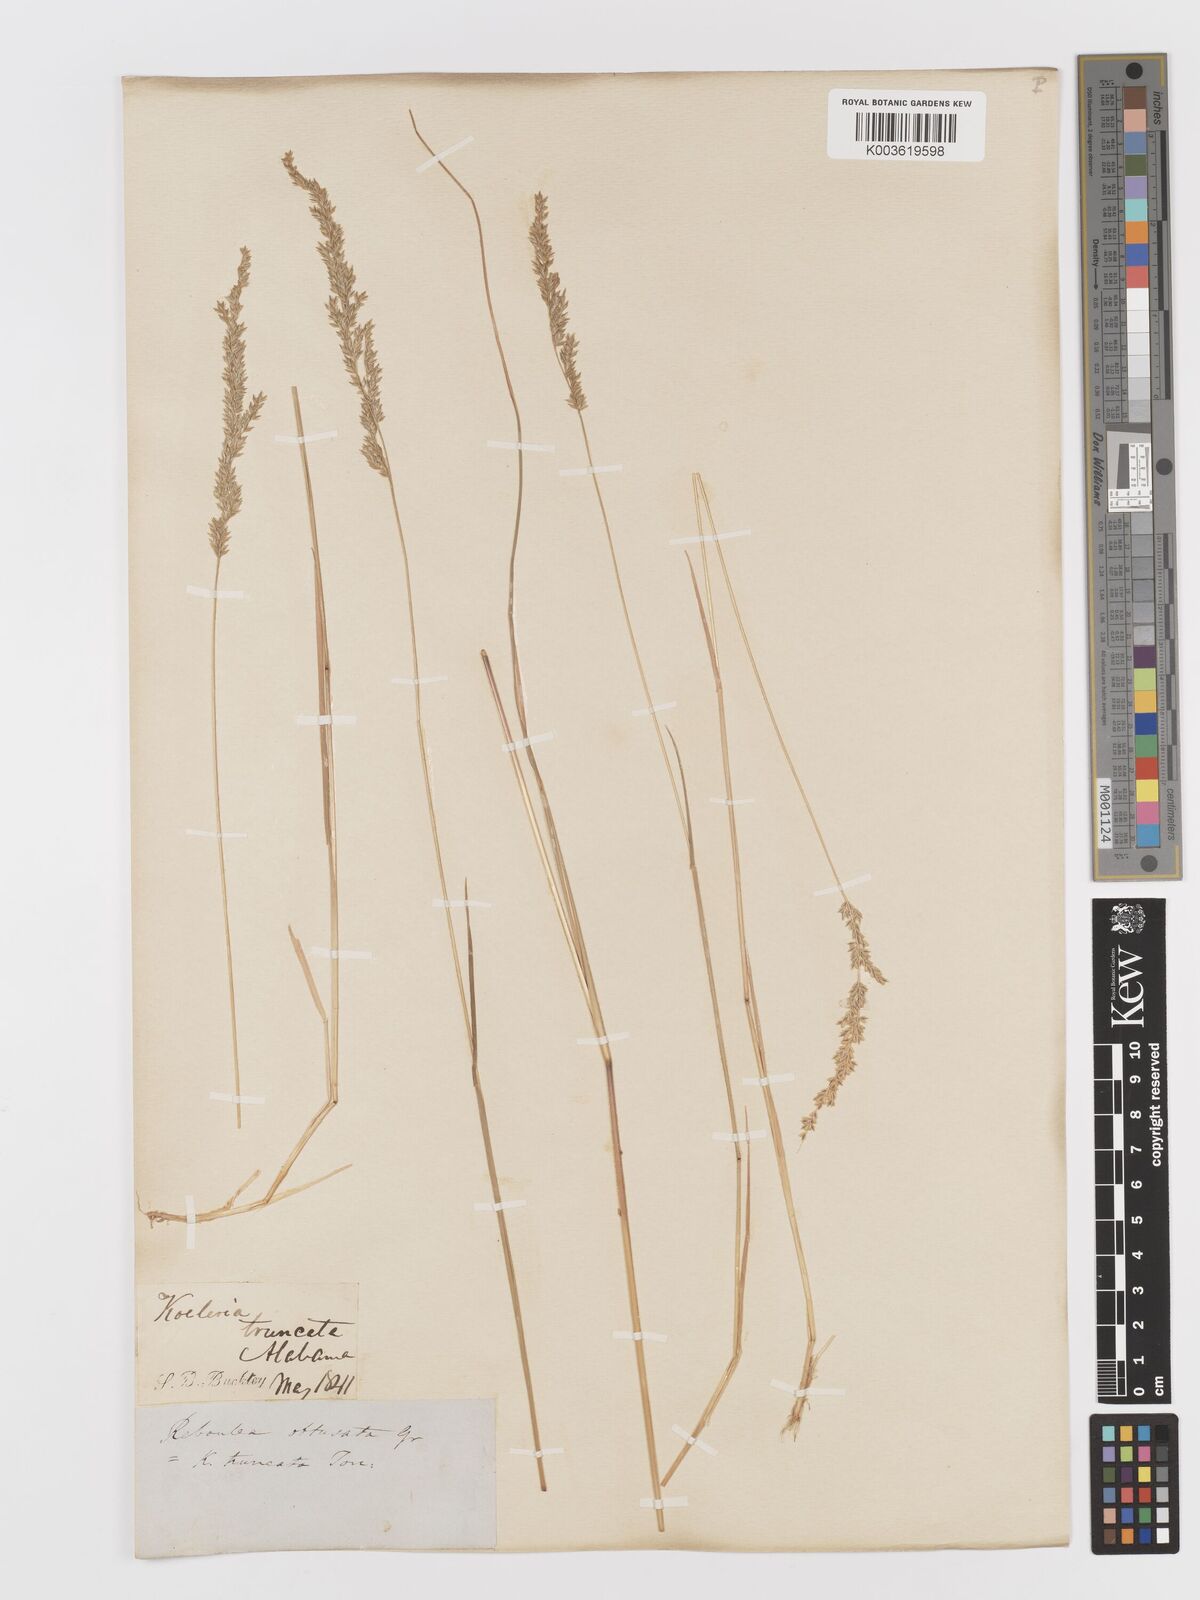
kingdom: Plantae
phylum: Tracheophyta
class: Liliopsida
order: Poales
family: Poaceae
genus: Sphenopholis
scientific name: Sphenopholis obtusata
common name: Prairie grass
